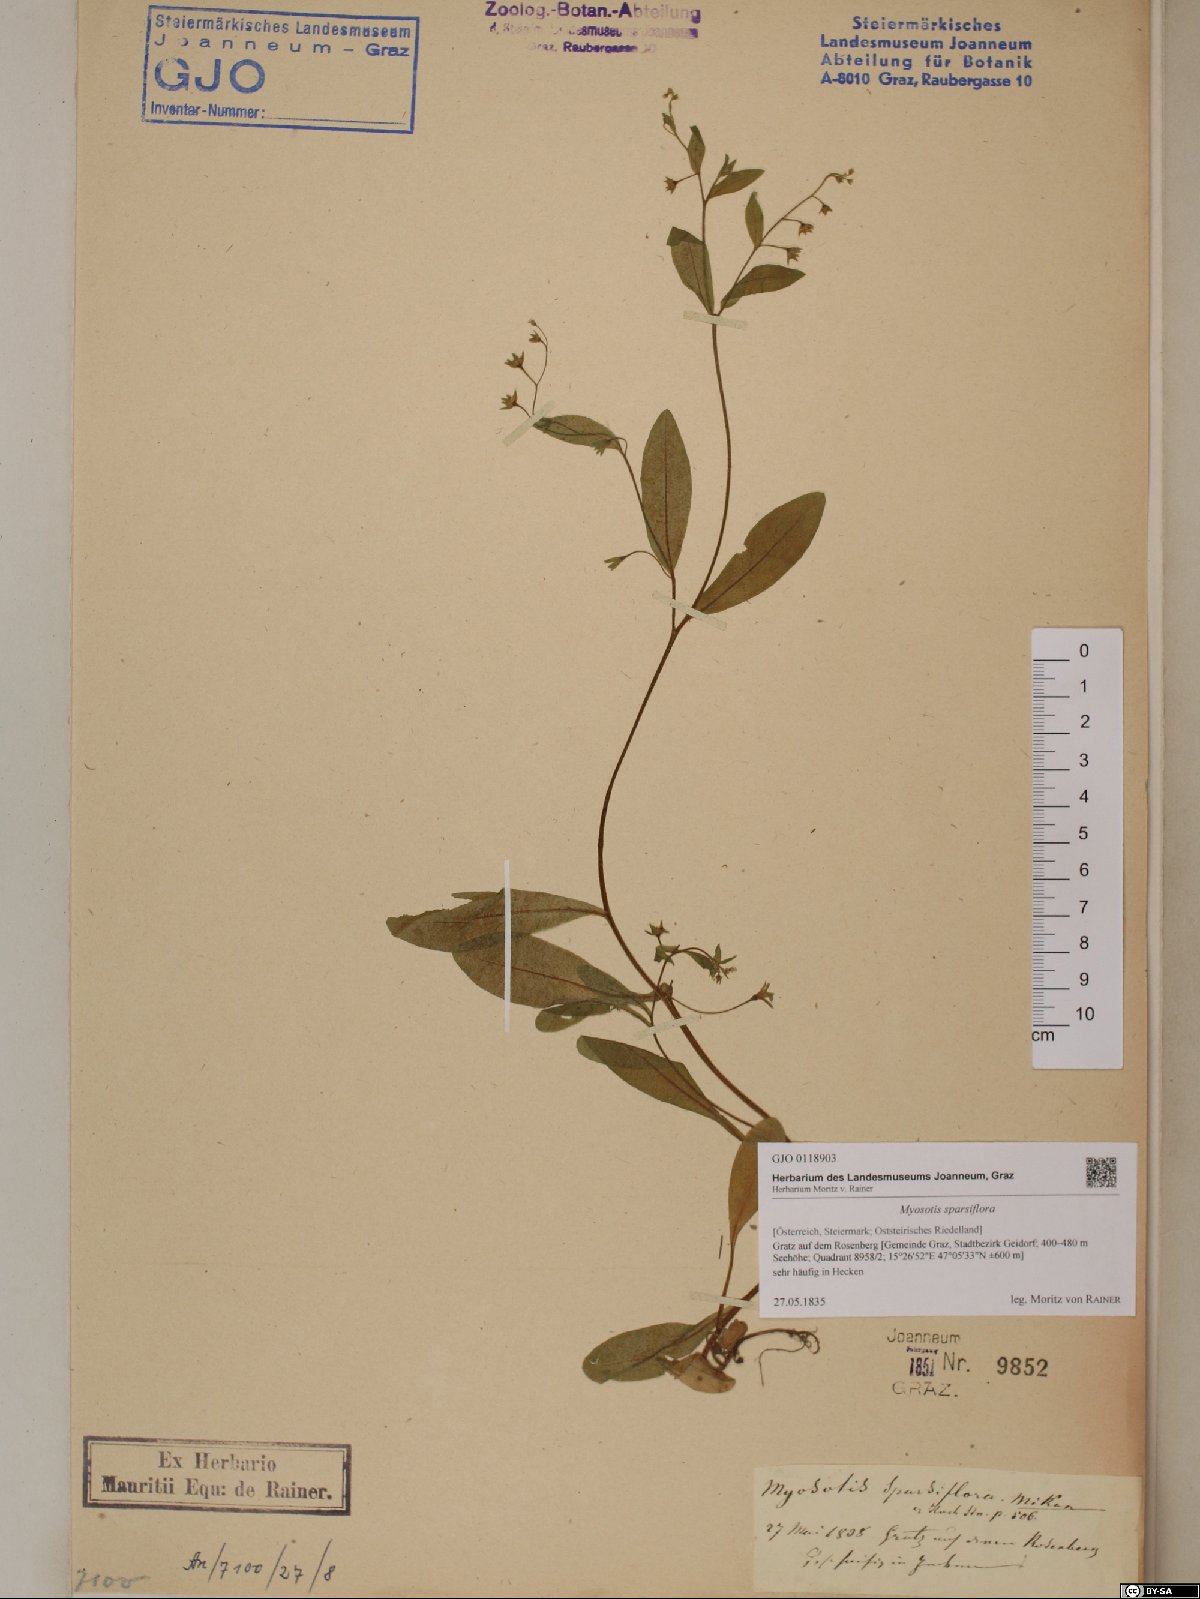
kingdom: Plantae
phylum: Tracheophyta
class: Magnoliopsida
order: Boraginales
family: Boraginaceae
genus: Myosotis
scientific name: Myosotis sparsiflora
